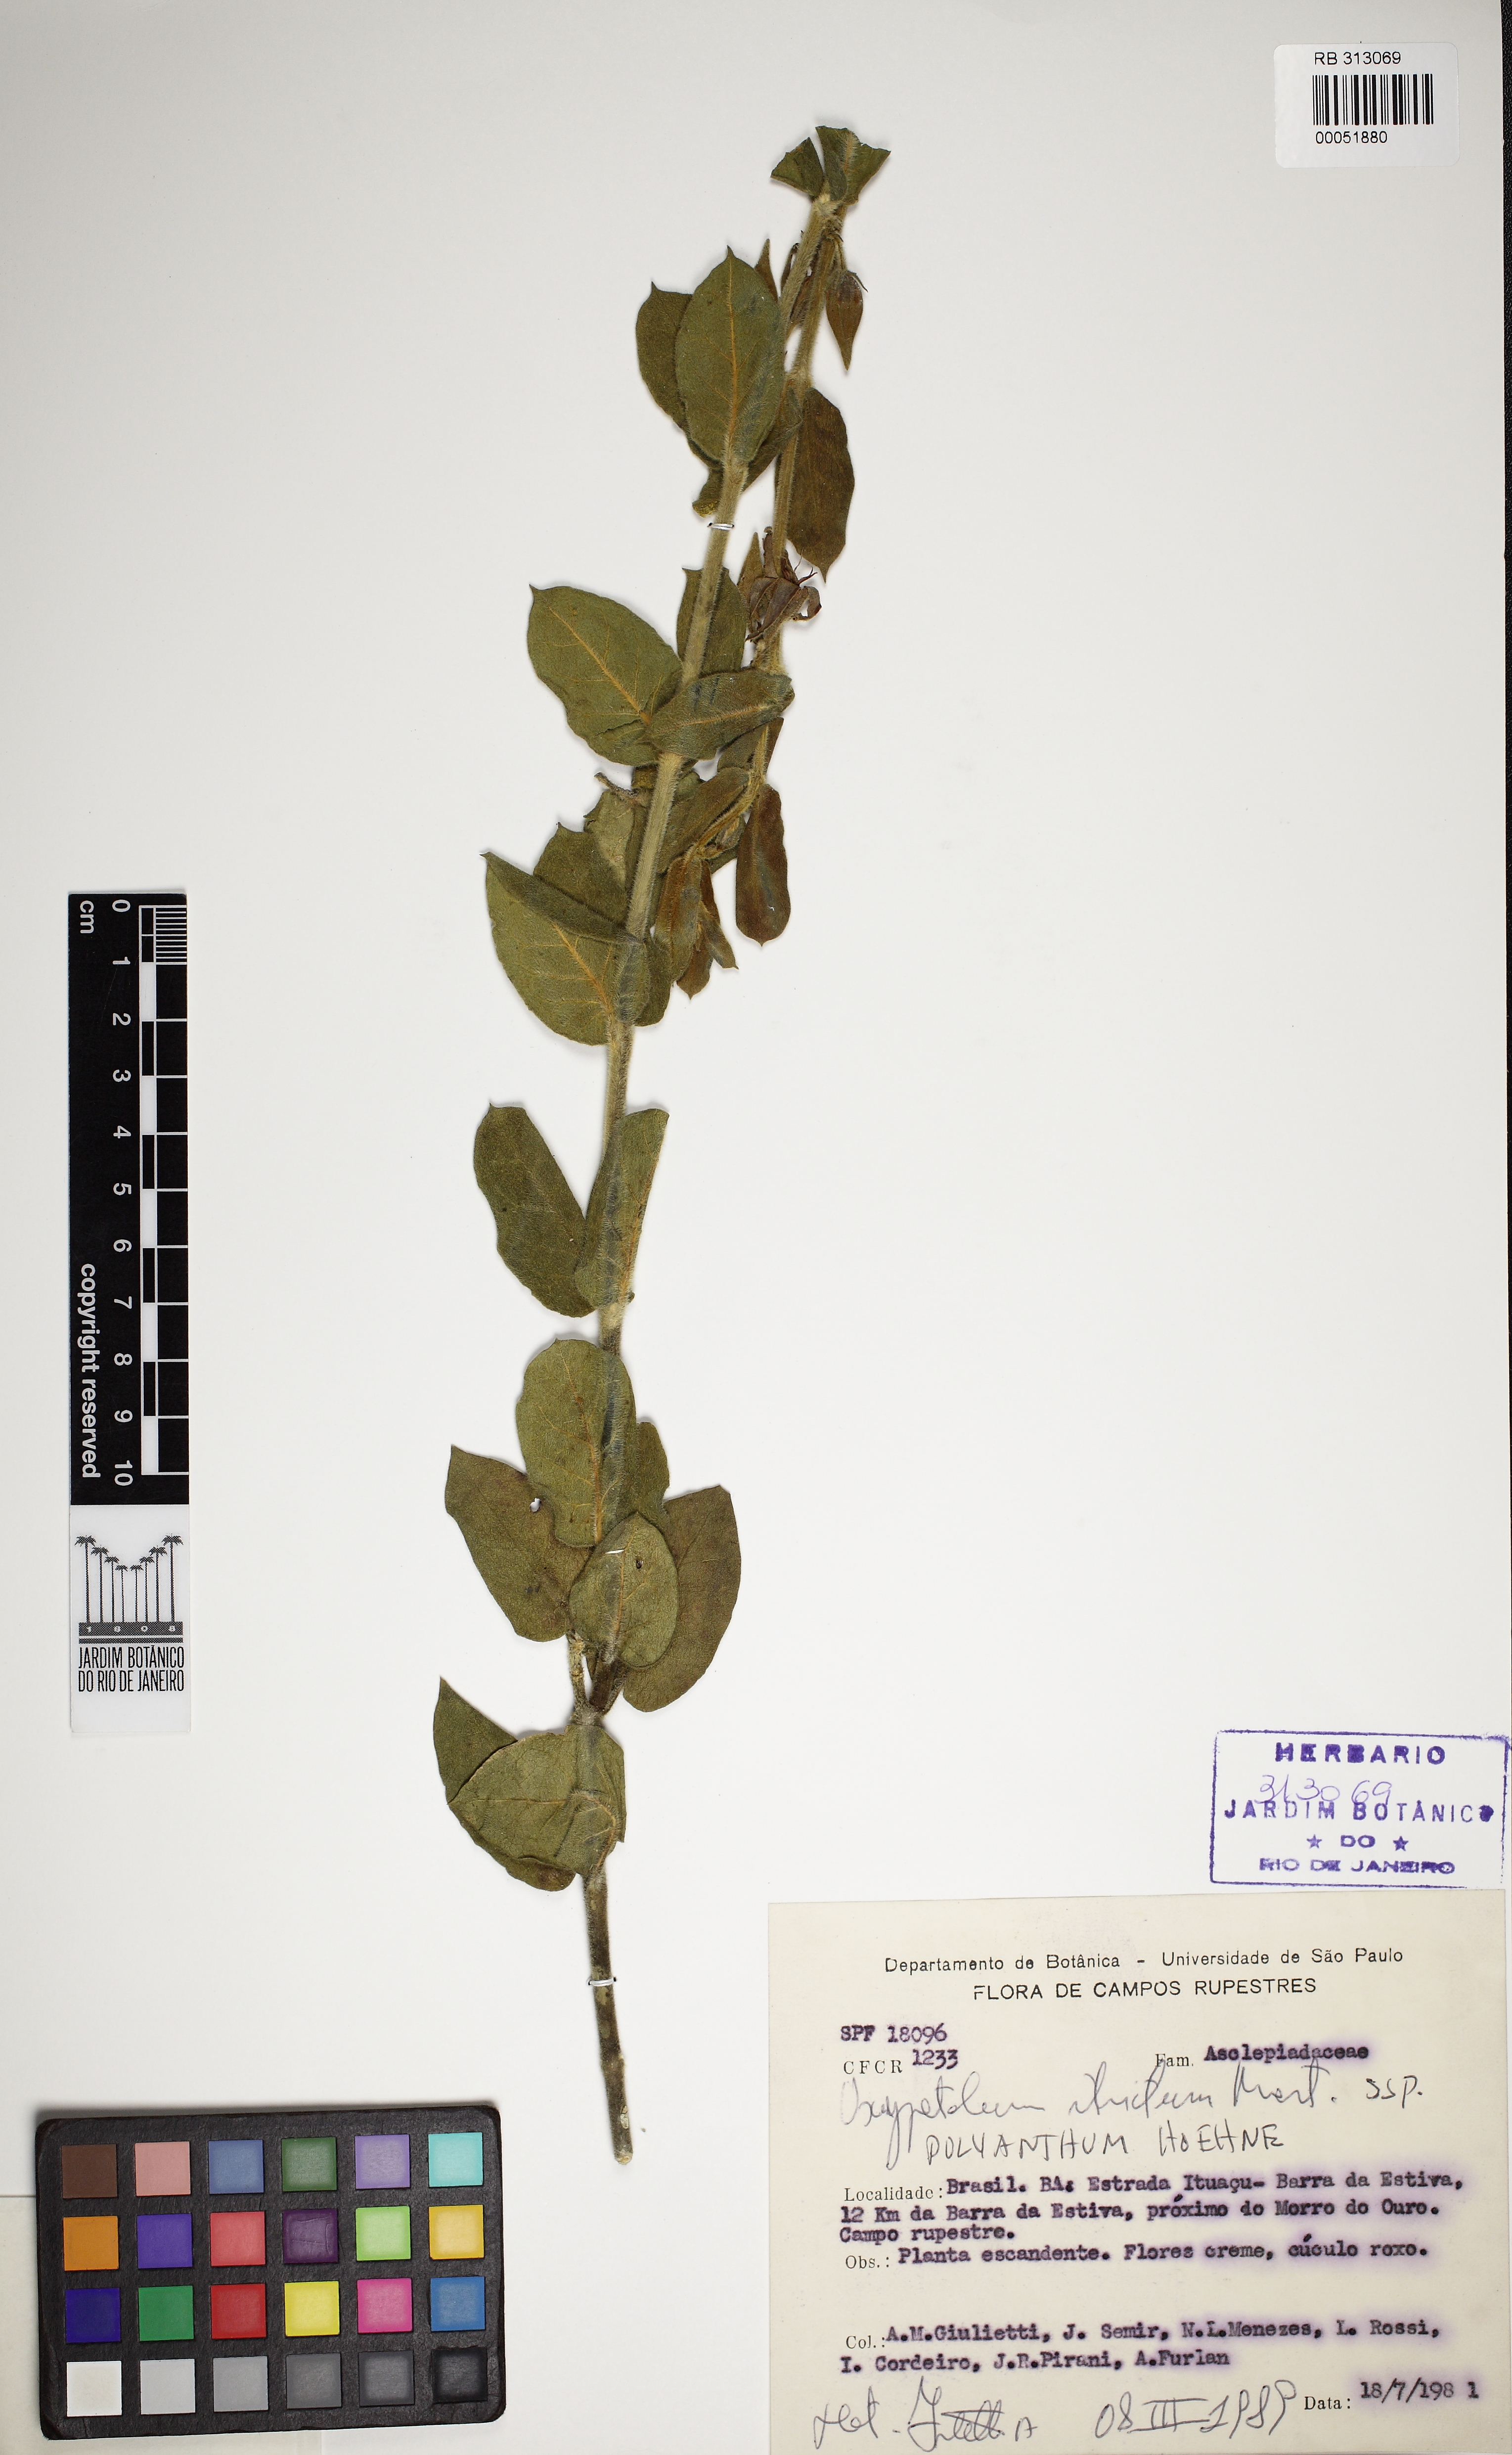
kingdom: Plantae
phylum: Tracheophyta
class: Magnoliopsida
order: Gentianales
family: Apocynaceae
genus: Oxypetalum
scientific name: Oxypetalum polyanthum
